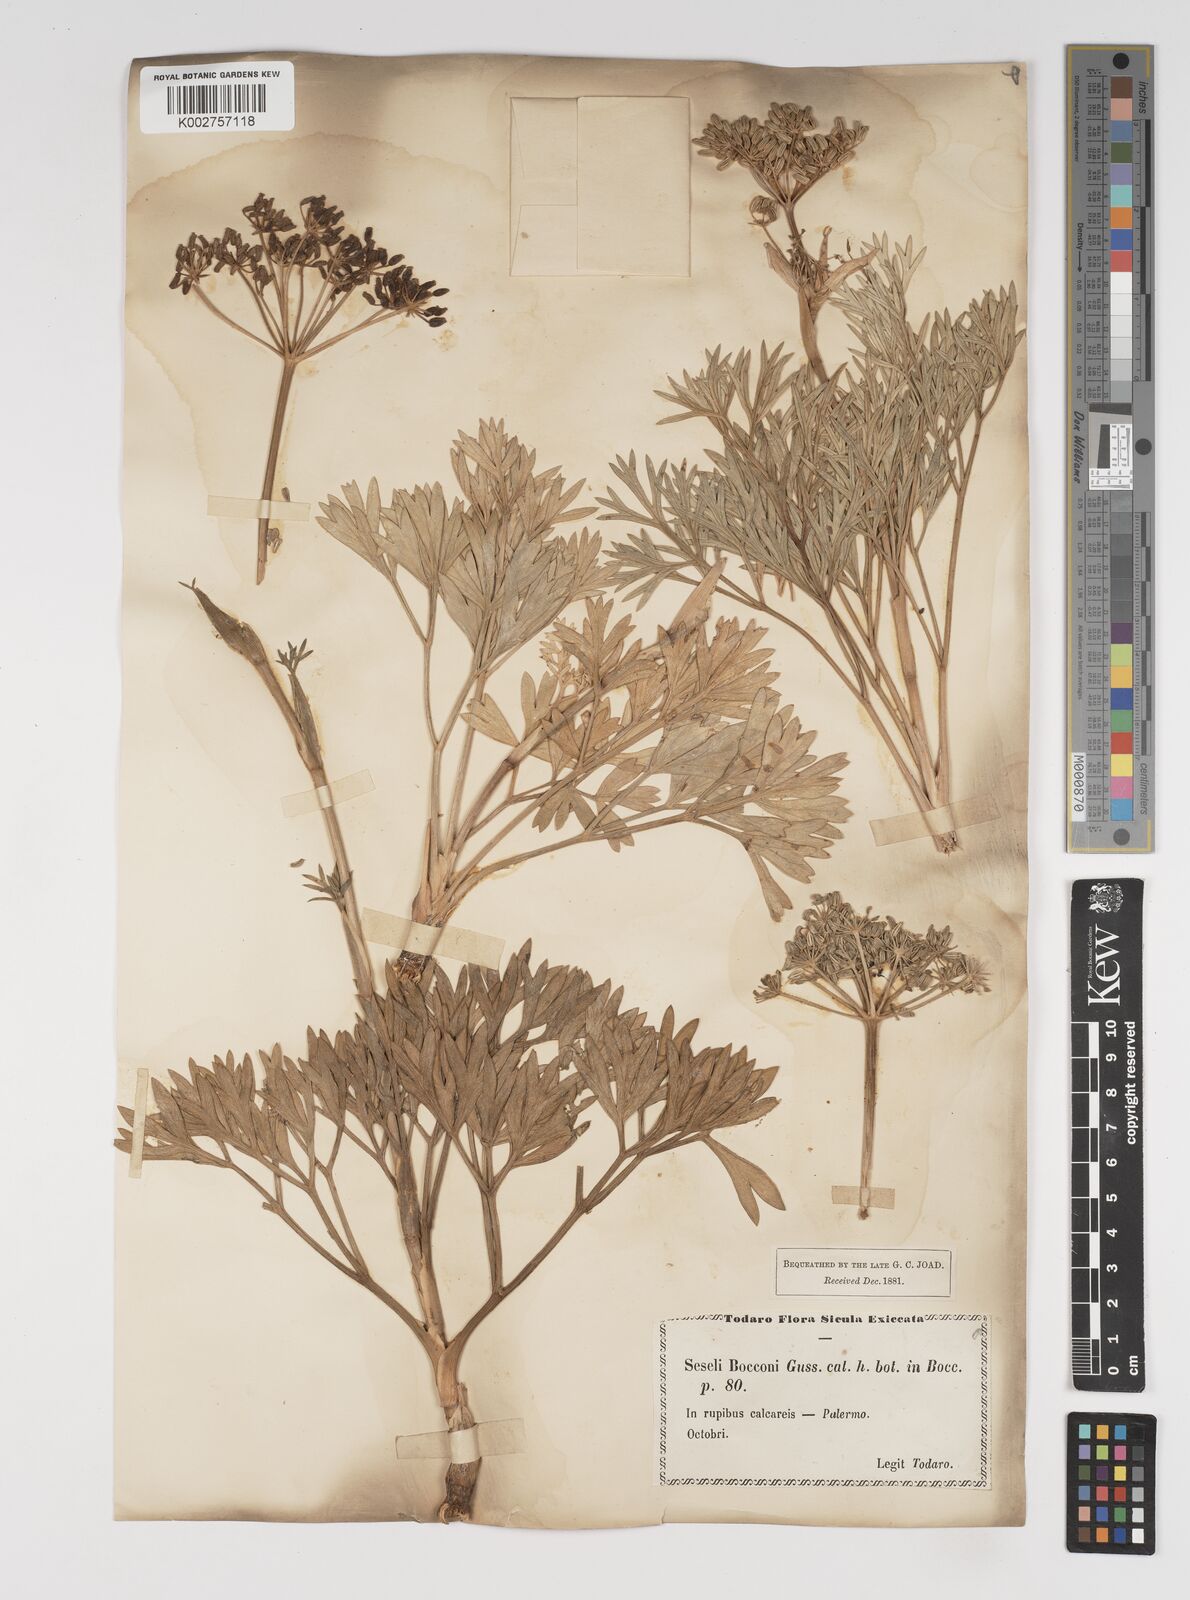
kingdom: Plantae
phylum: Tracheophyta
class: Magnoliopsida
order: Apiales
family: Apiaceae
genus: Seseli
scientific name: Seseli bocconei
